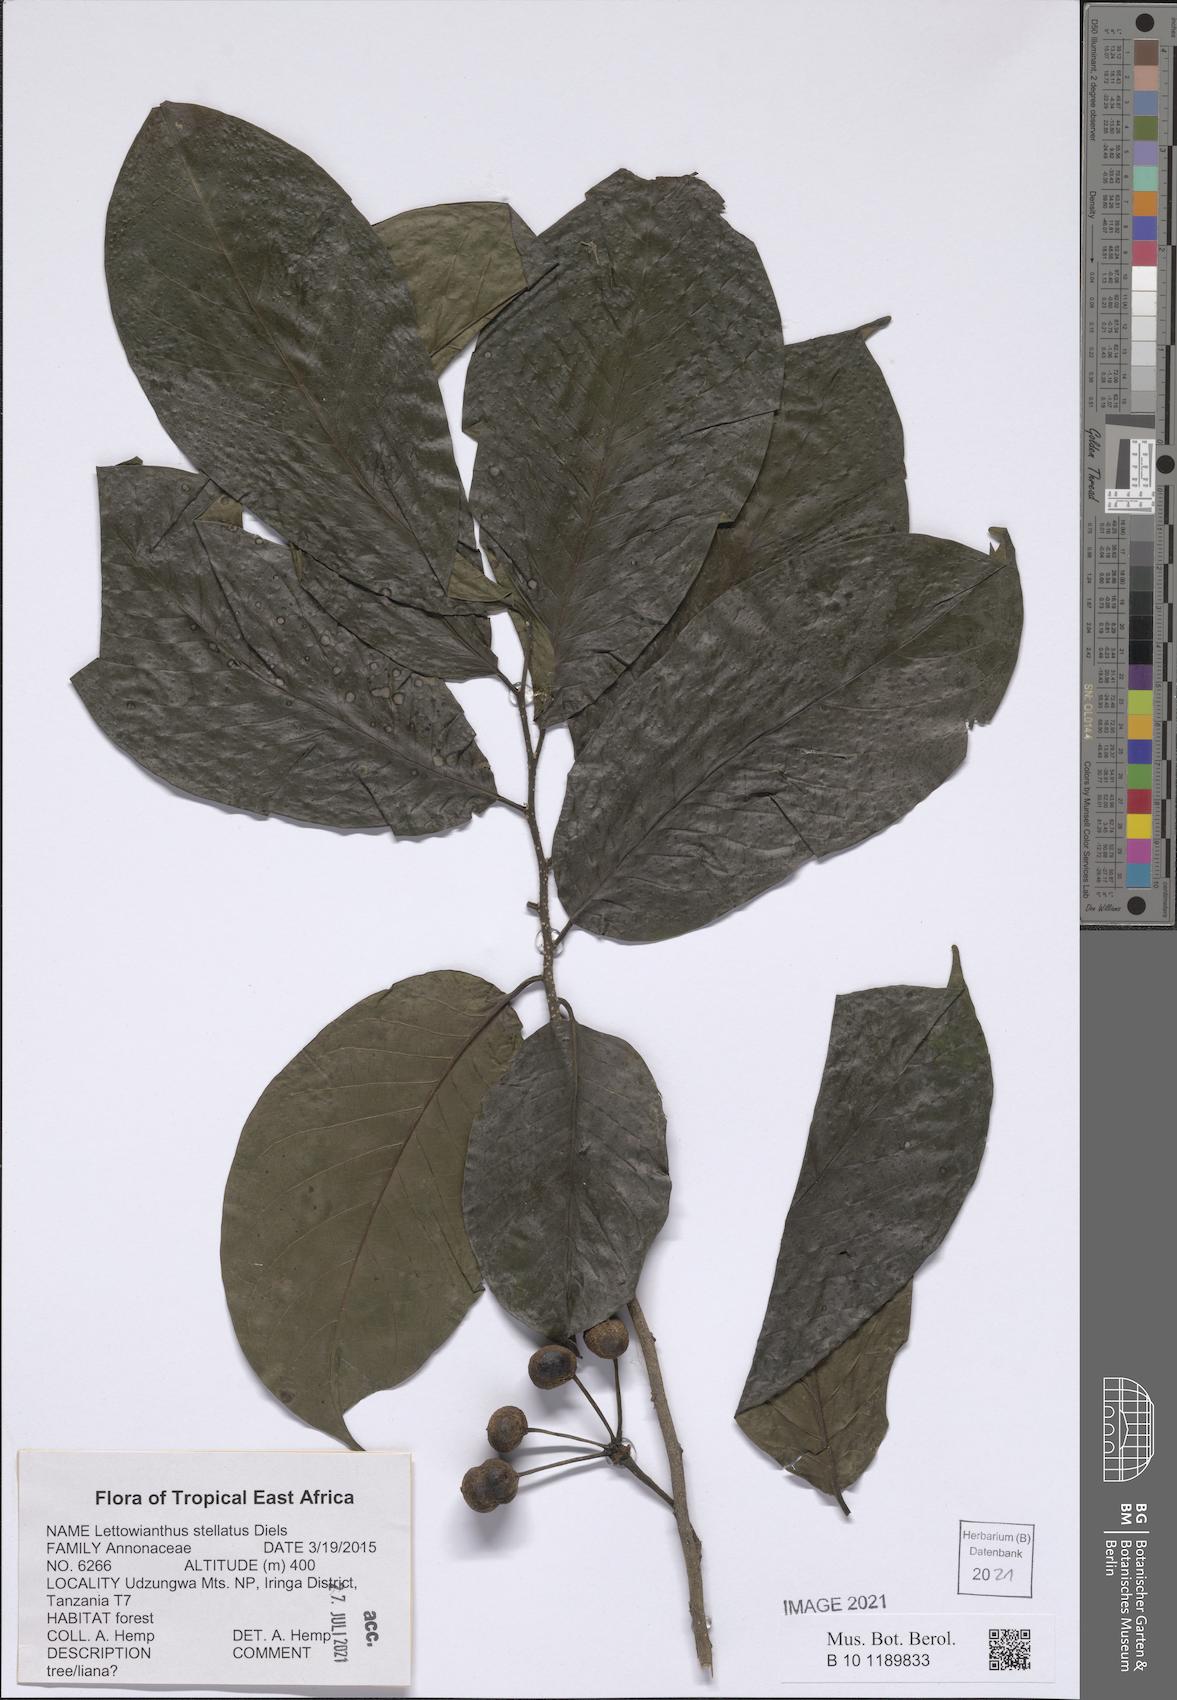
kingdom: Plantae
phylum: Tracheophyta
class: Magnoliopsida
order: Magnoliales
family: Annonaceae
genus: Lettowianthus
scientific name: Lettowianthus stellatus
